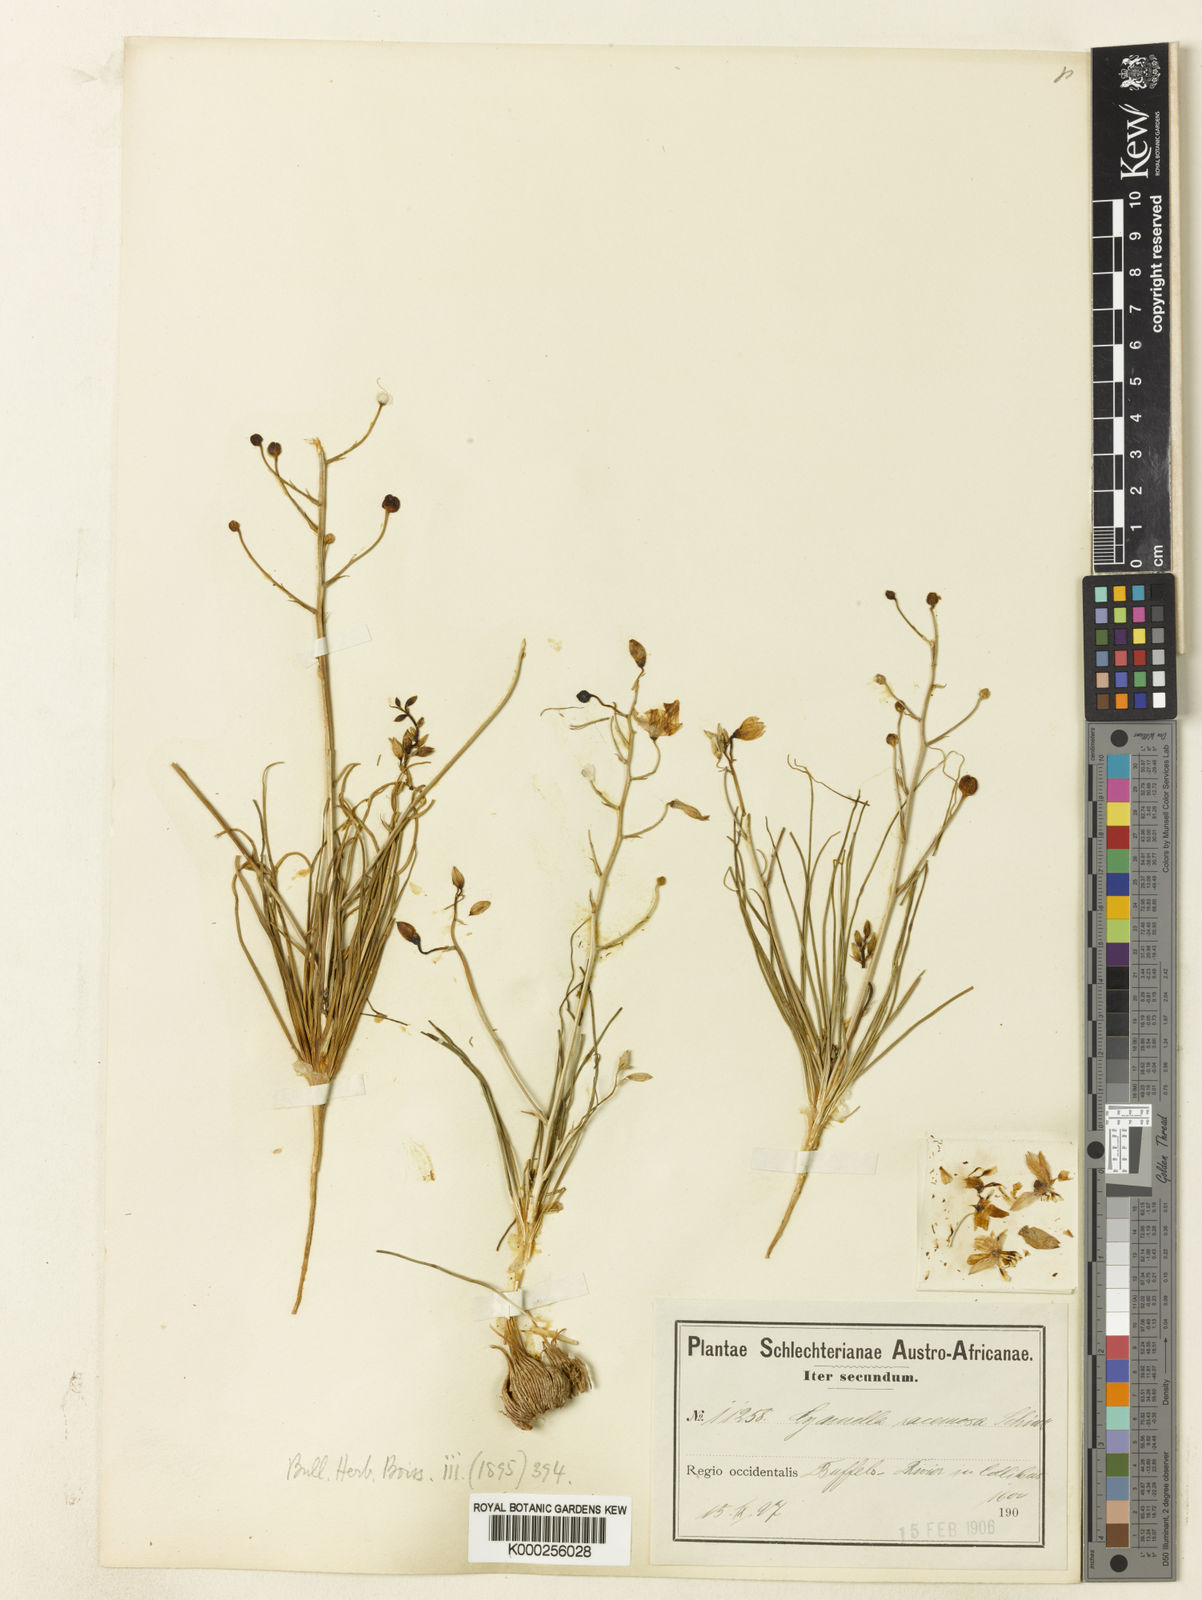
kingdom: Plantae
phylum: Tracheophyta
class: Liliopsida
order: Asparagales
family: Tecophilaeaceae
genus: Cyanella
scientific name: Cyanella lutea
